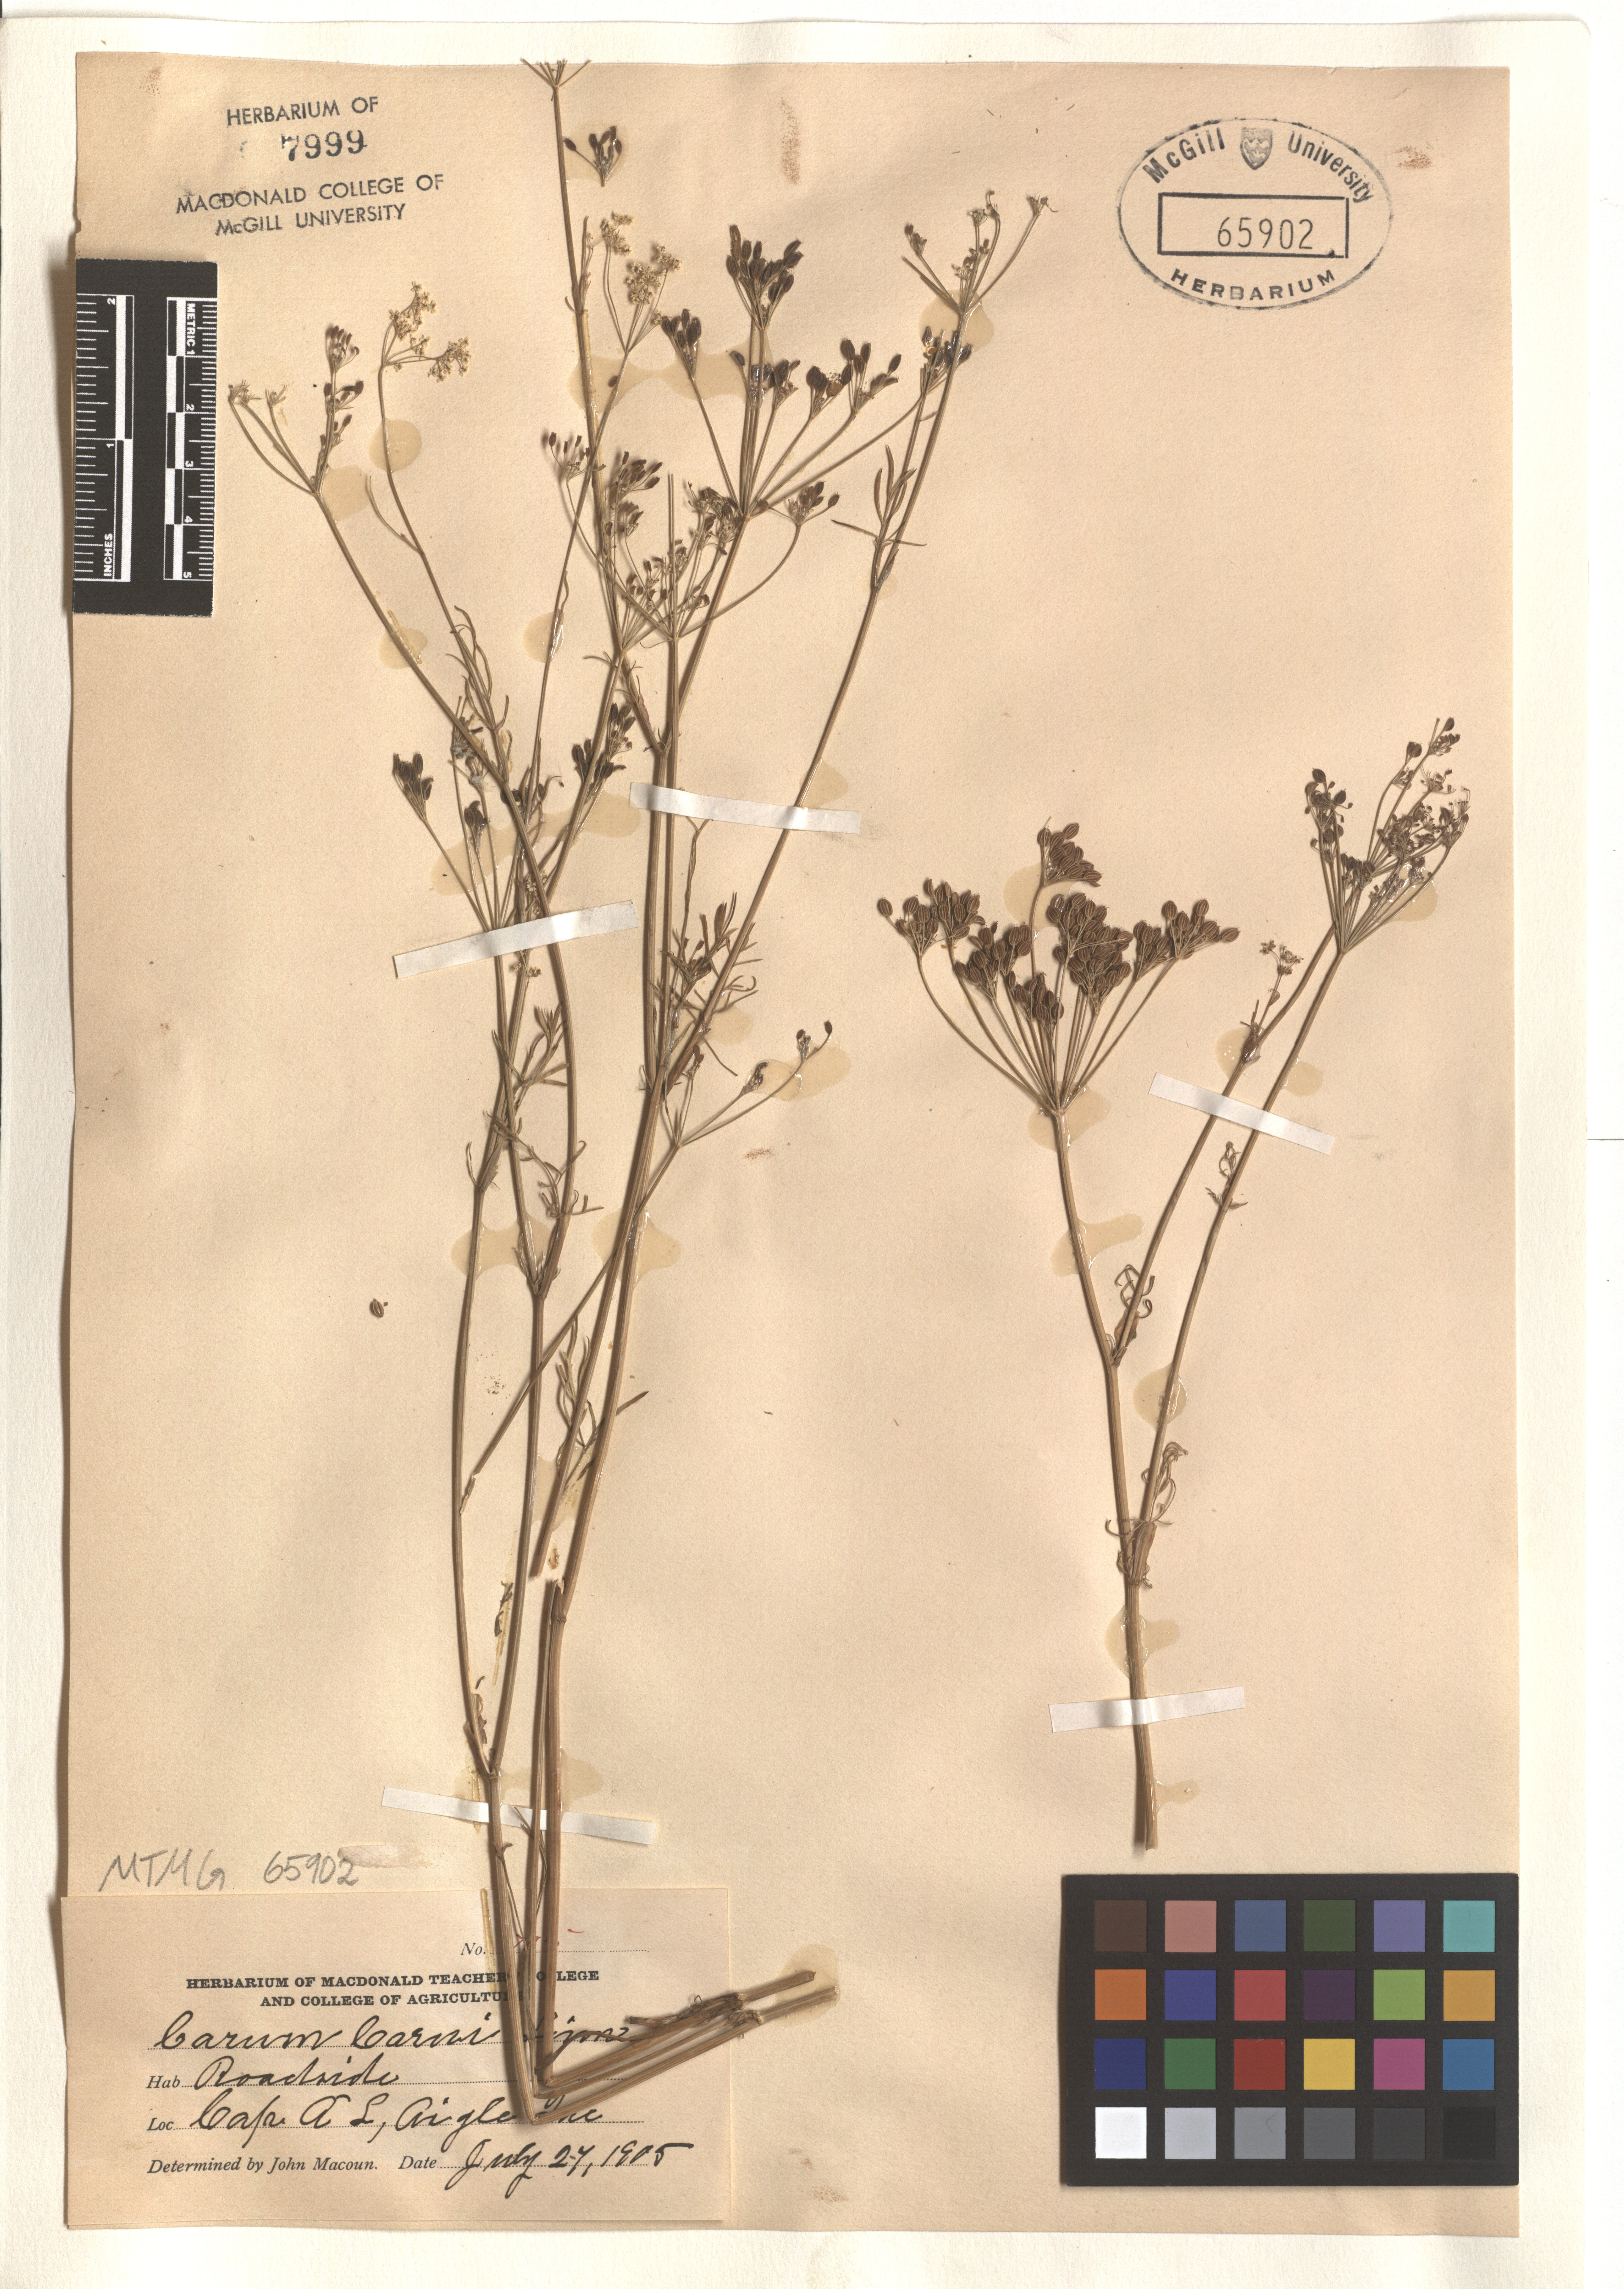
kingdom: Plantae
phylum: Tracheophyta
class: Magnoliopsida
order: Apiales
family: Apiaceae
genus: Carum
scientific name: Carum carvi
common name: Caraway
